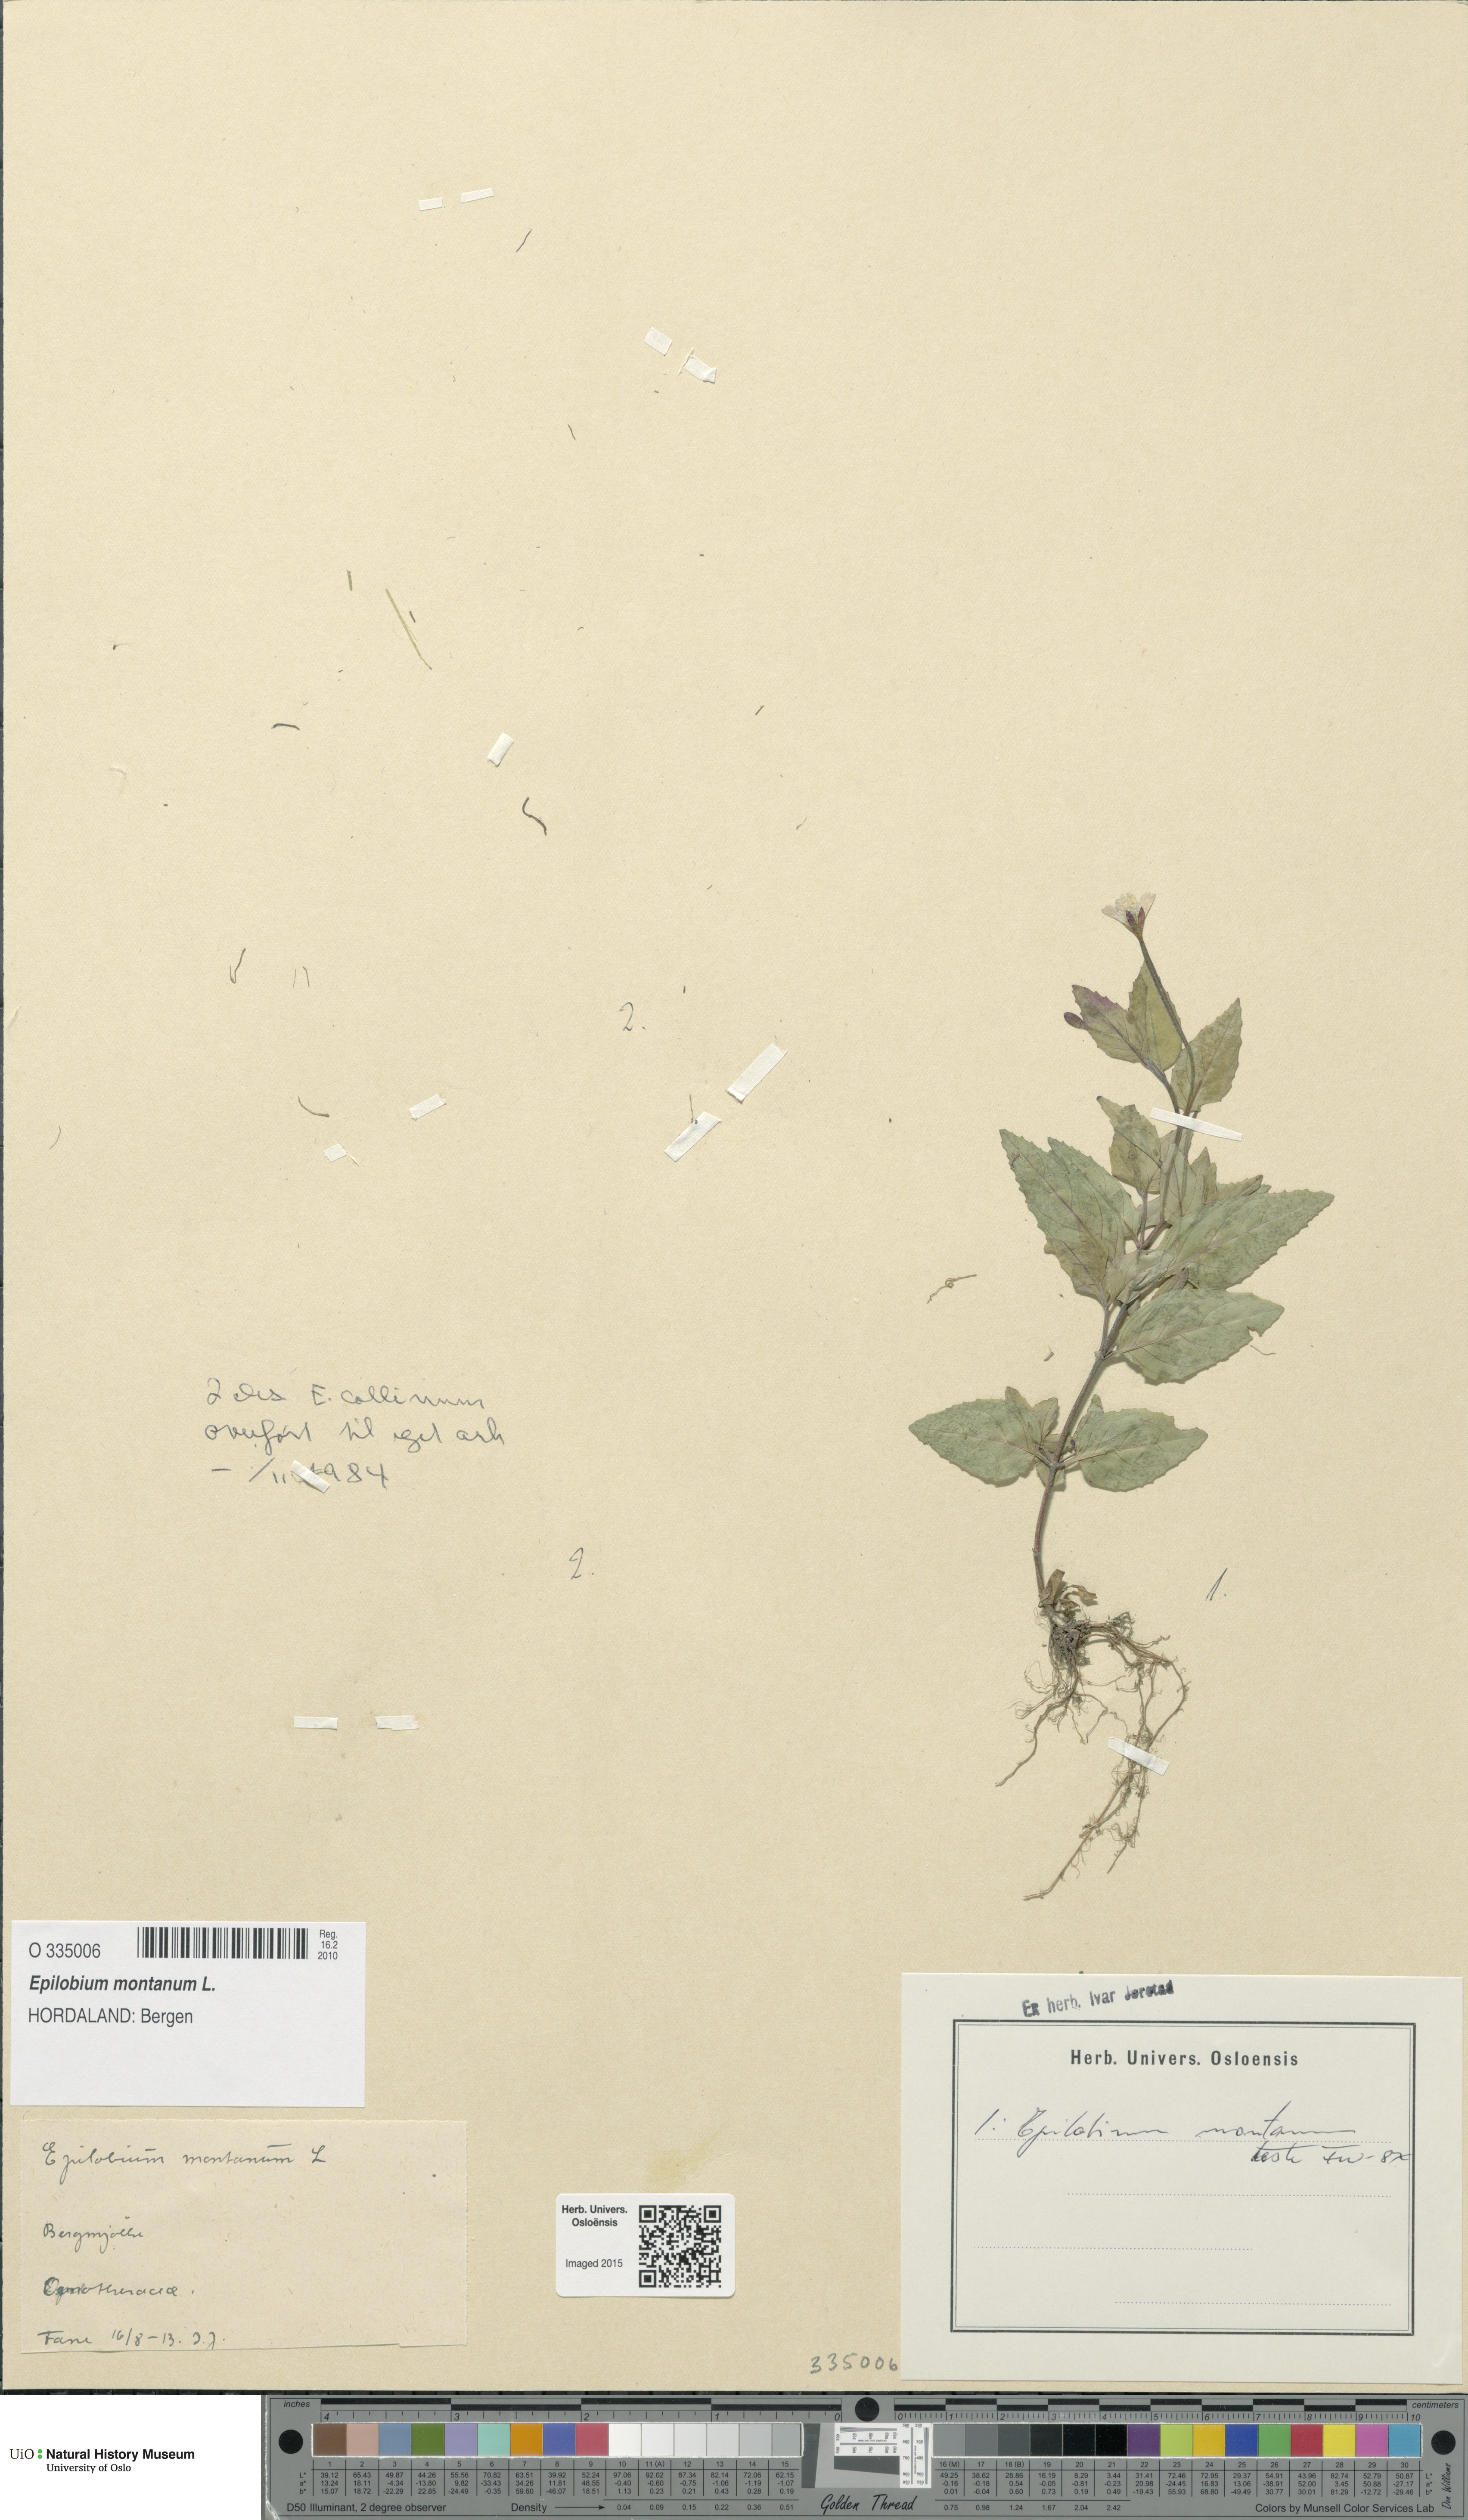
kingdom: Plantae
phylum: Tracheophyta
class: Magnoliopsida
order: Myrtales
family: Onagraceae
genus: Epilobium
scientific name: Epilobium montanum
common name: Broad-leaved willowherb
